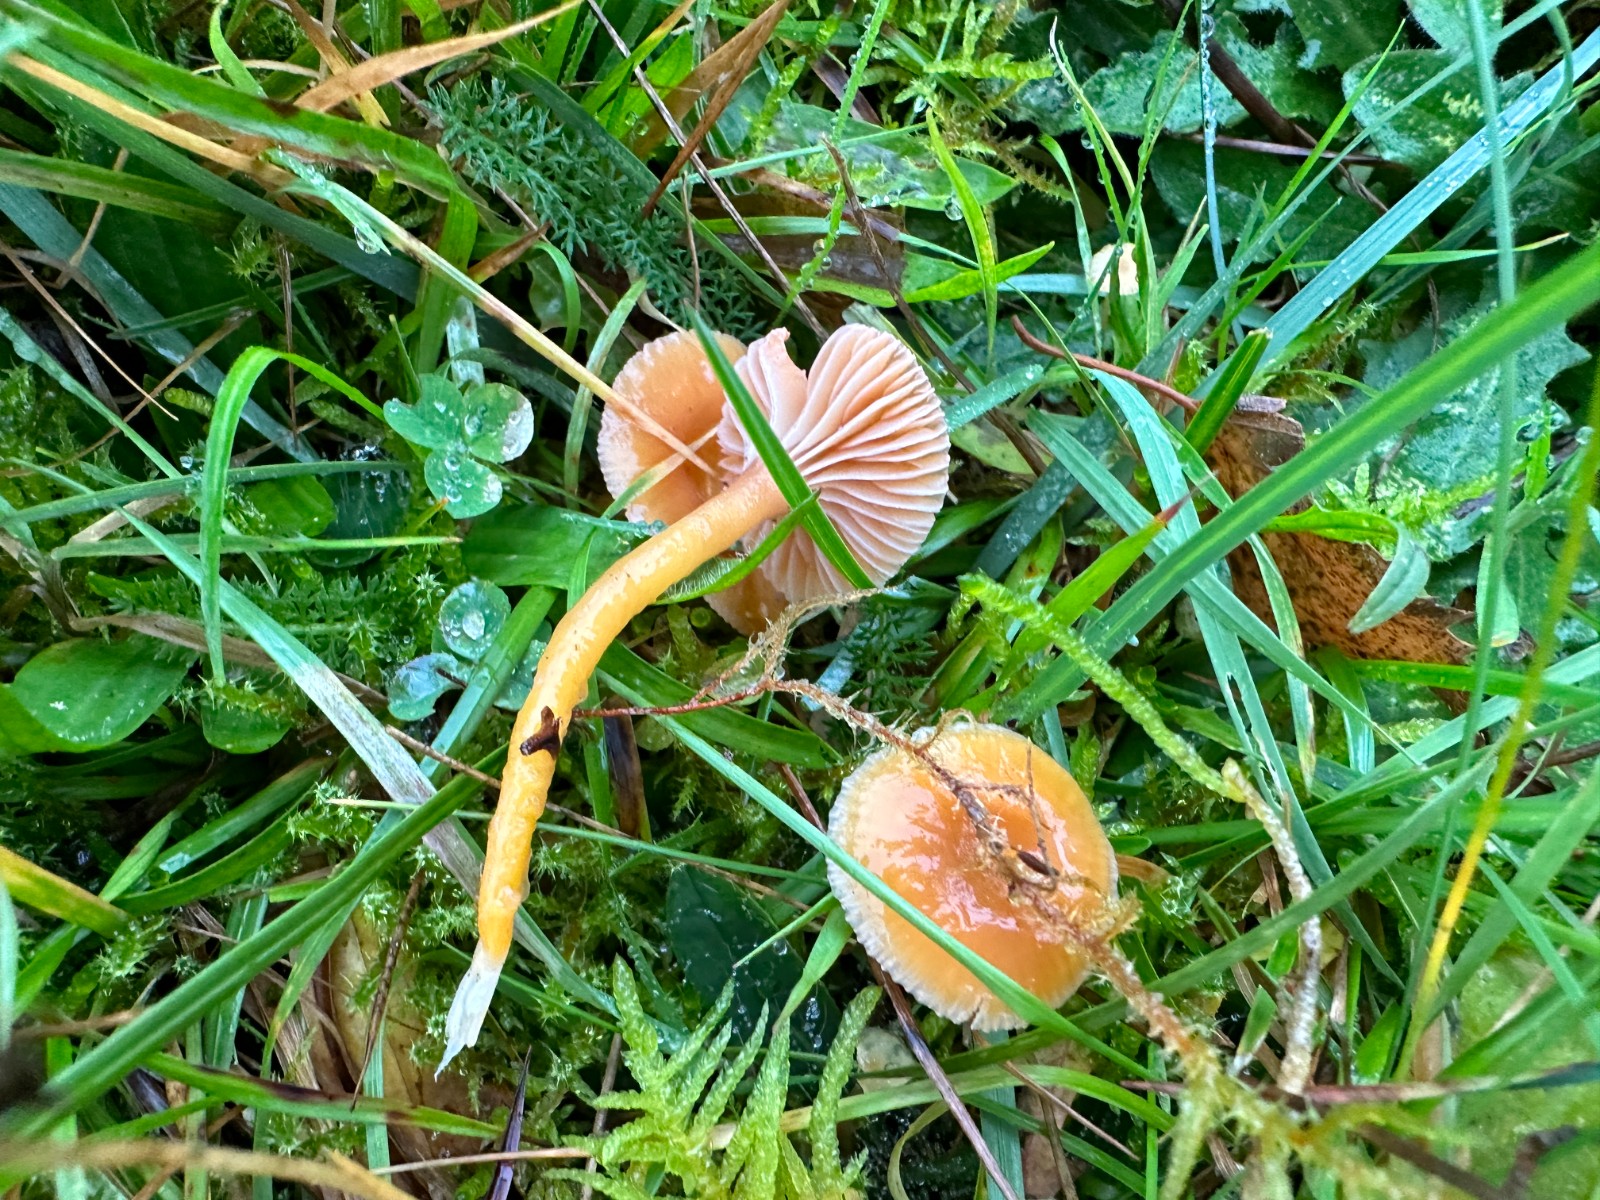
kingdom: Fungi
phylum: Basidiomycota
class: Agaricomycetes
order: Agaricales
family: Hygrophoraceae
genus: Gliophorus
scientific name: Gliophorus laetus
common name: brusk-vokshat
